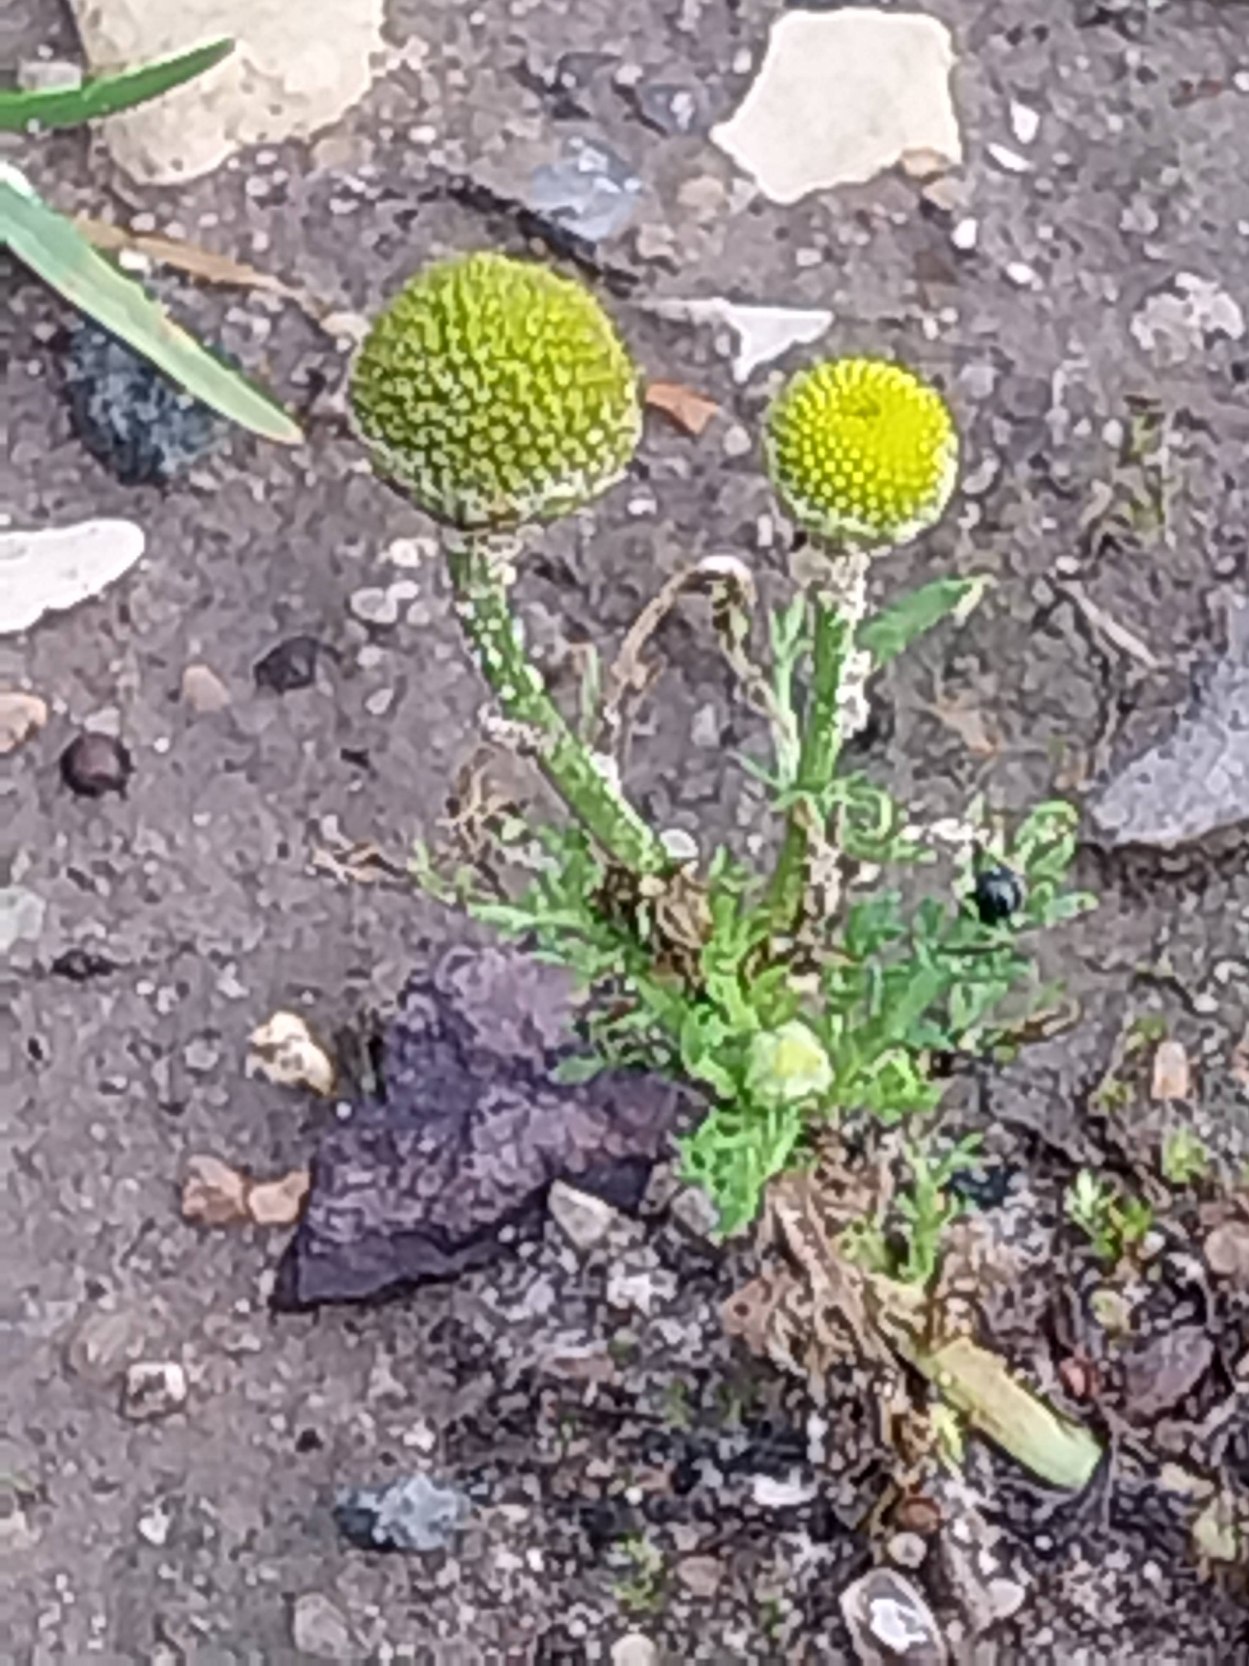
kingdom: Plantae
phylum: Tracheophyta
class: Magnoliopsida
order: Asterales
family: Asteraceae
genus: Matricaria
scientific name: Matricaria discoidea
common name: Skive-kamille
